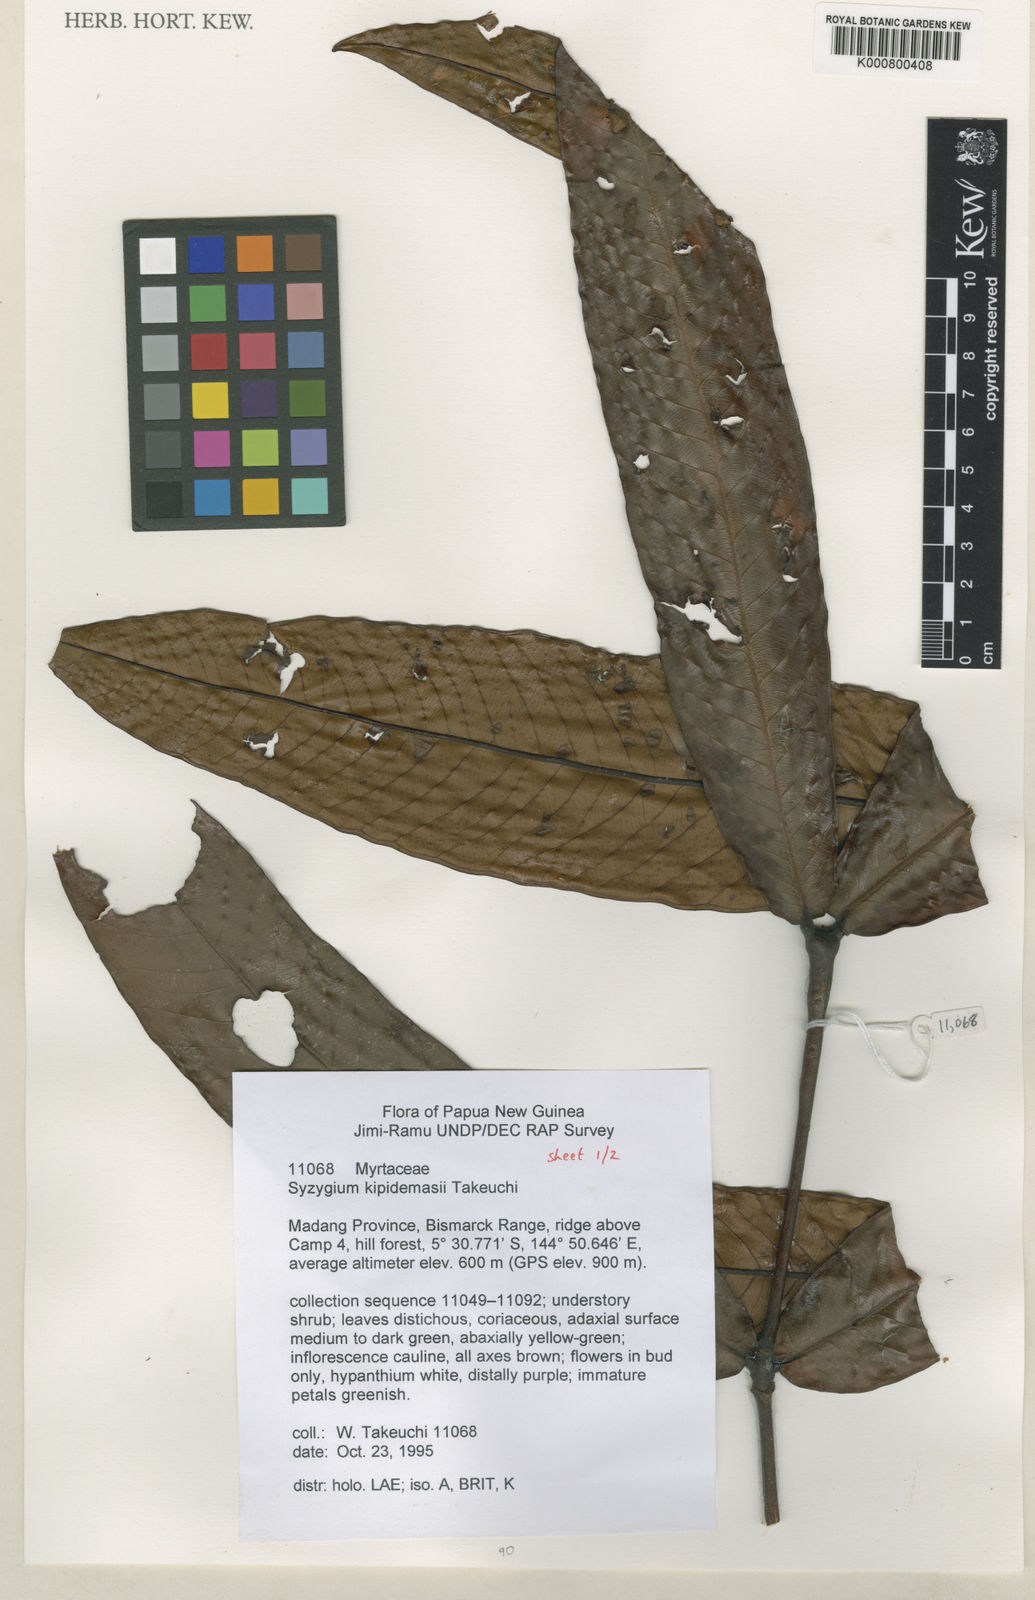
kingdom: Plantae
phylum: Tracheophyta
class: Magnoliopsida
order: Myrtales
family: Myrtaceae
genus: Syzygium
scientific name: Syzygium kipidamasii
